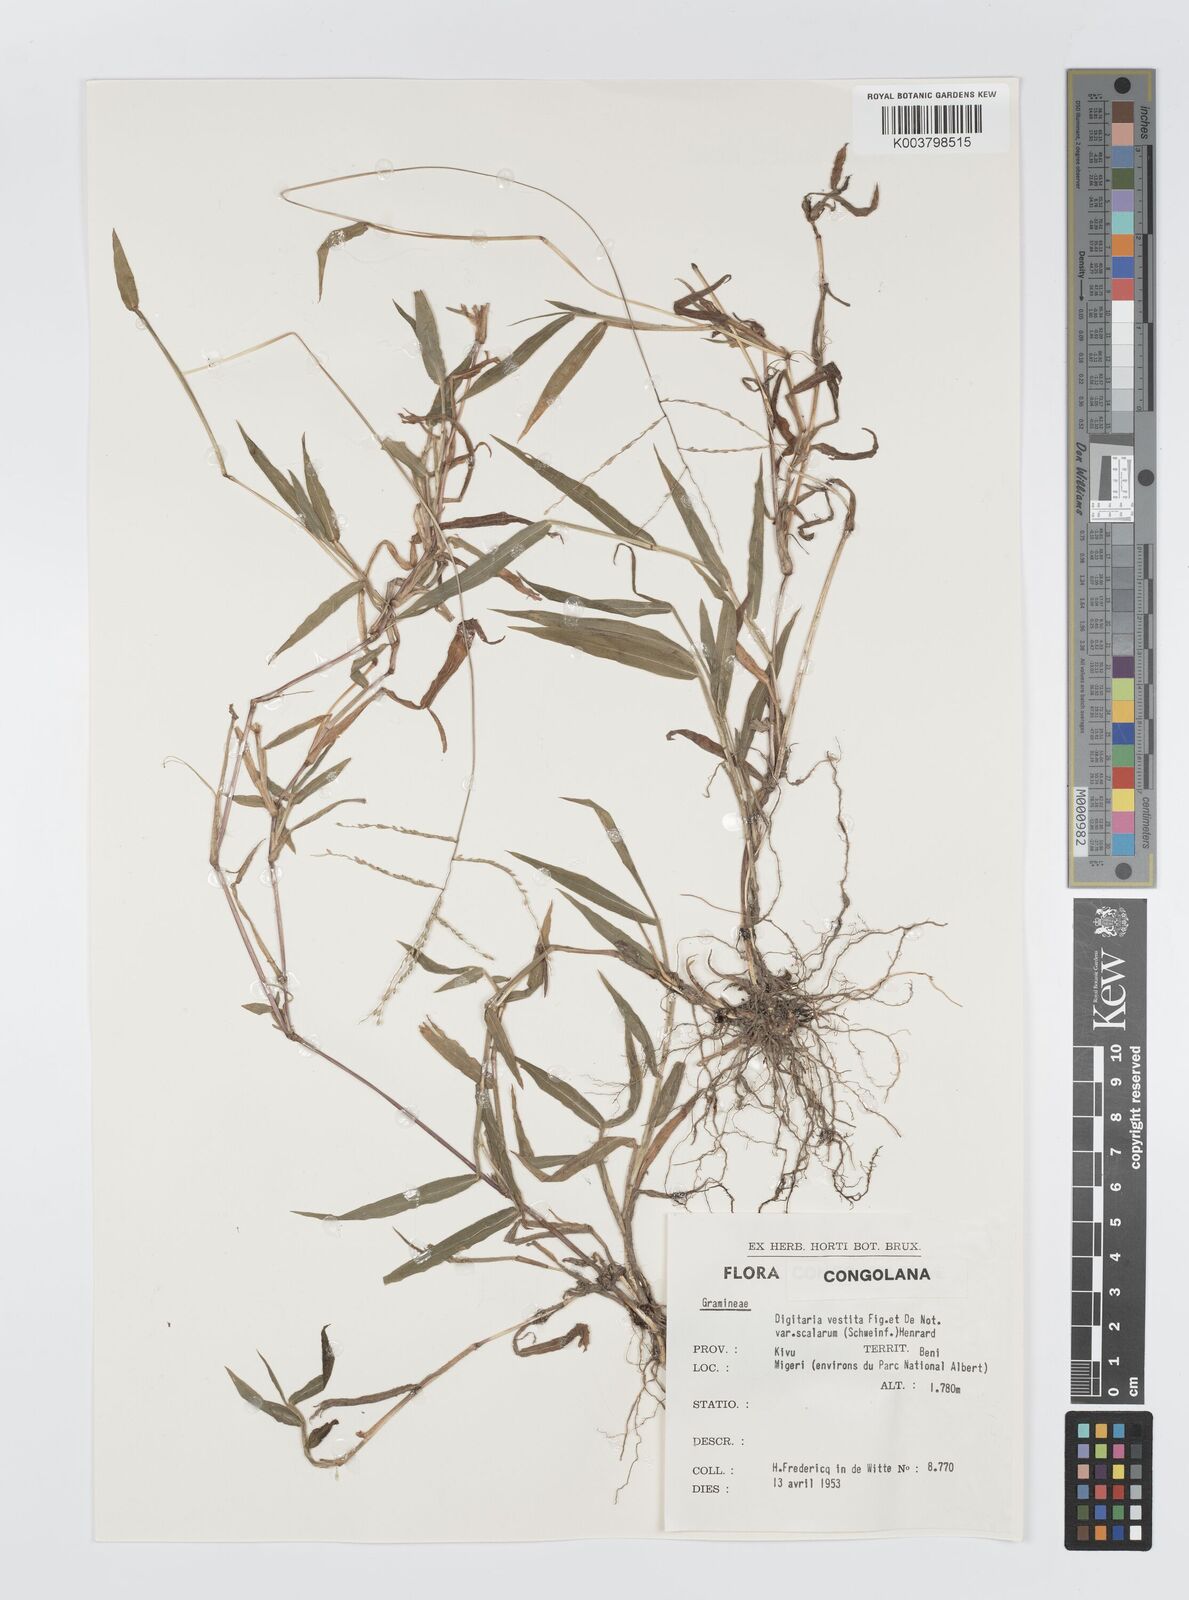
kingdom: Plantae
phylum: Tracheophyta
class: Liliopsida
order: Poales
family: Poaceae
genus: Digitaria
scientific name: Digitaria abyssinica
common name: African couchgrass
